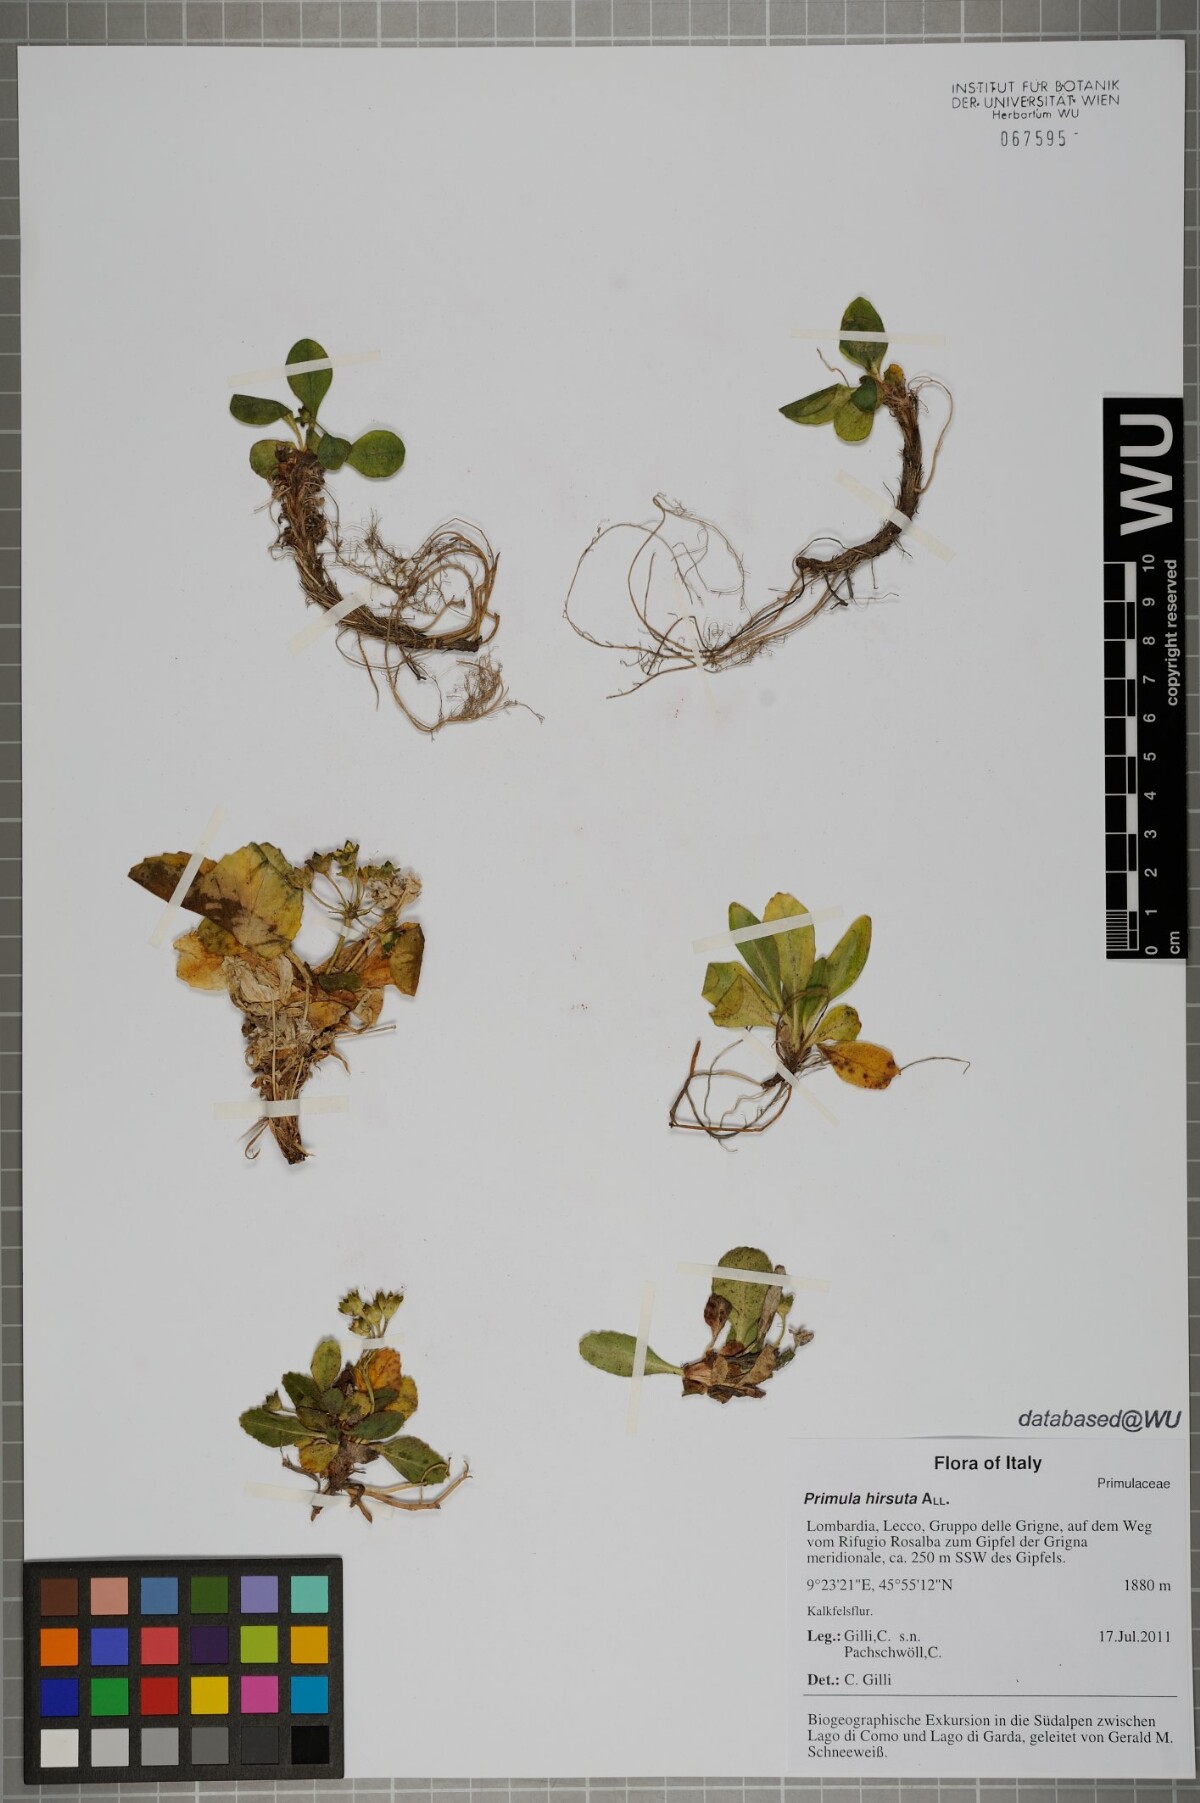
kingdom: Plantae
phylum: Tracheophyta
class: Magnoliopsida
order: Ericales
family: Primulaceae
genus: Primula
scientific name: Primula hirsuta
